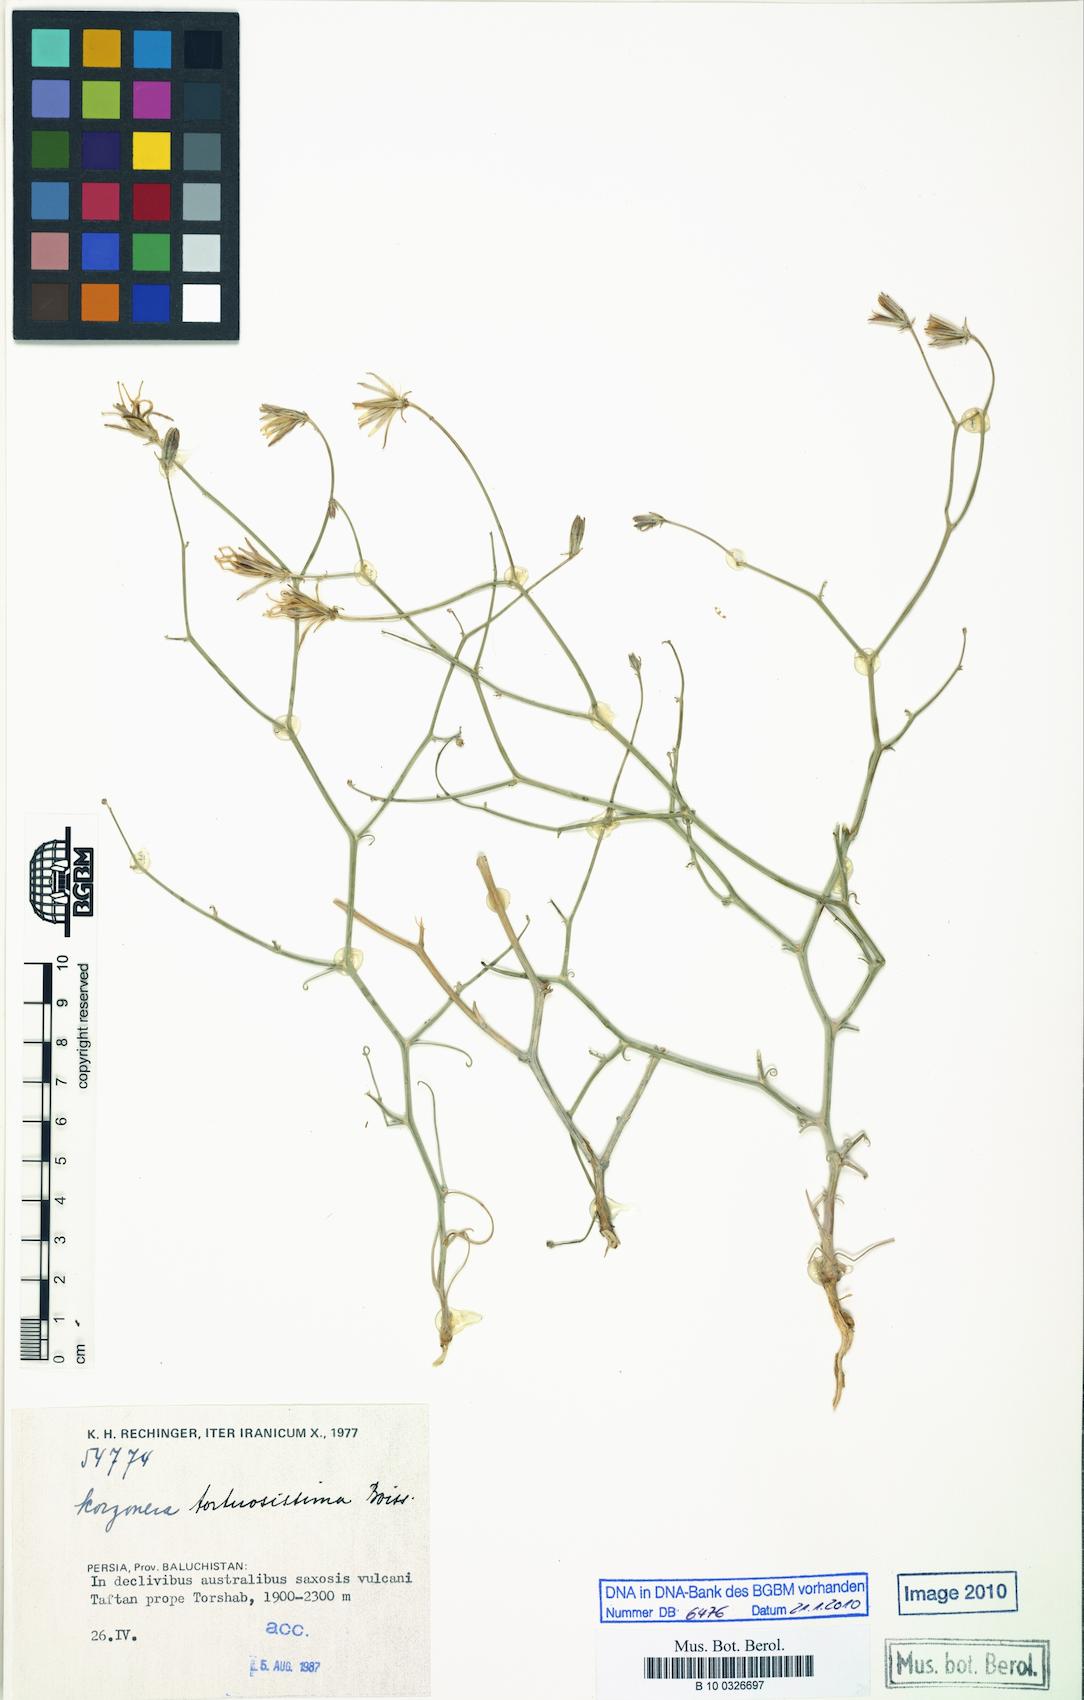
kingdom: Plantae
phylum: Tracheophyta
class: Magnoliopsida
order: Asterales
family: Asteraceae
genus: Ramaliella
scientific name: Ramaliella tortuosissima
